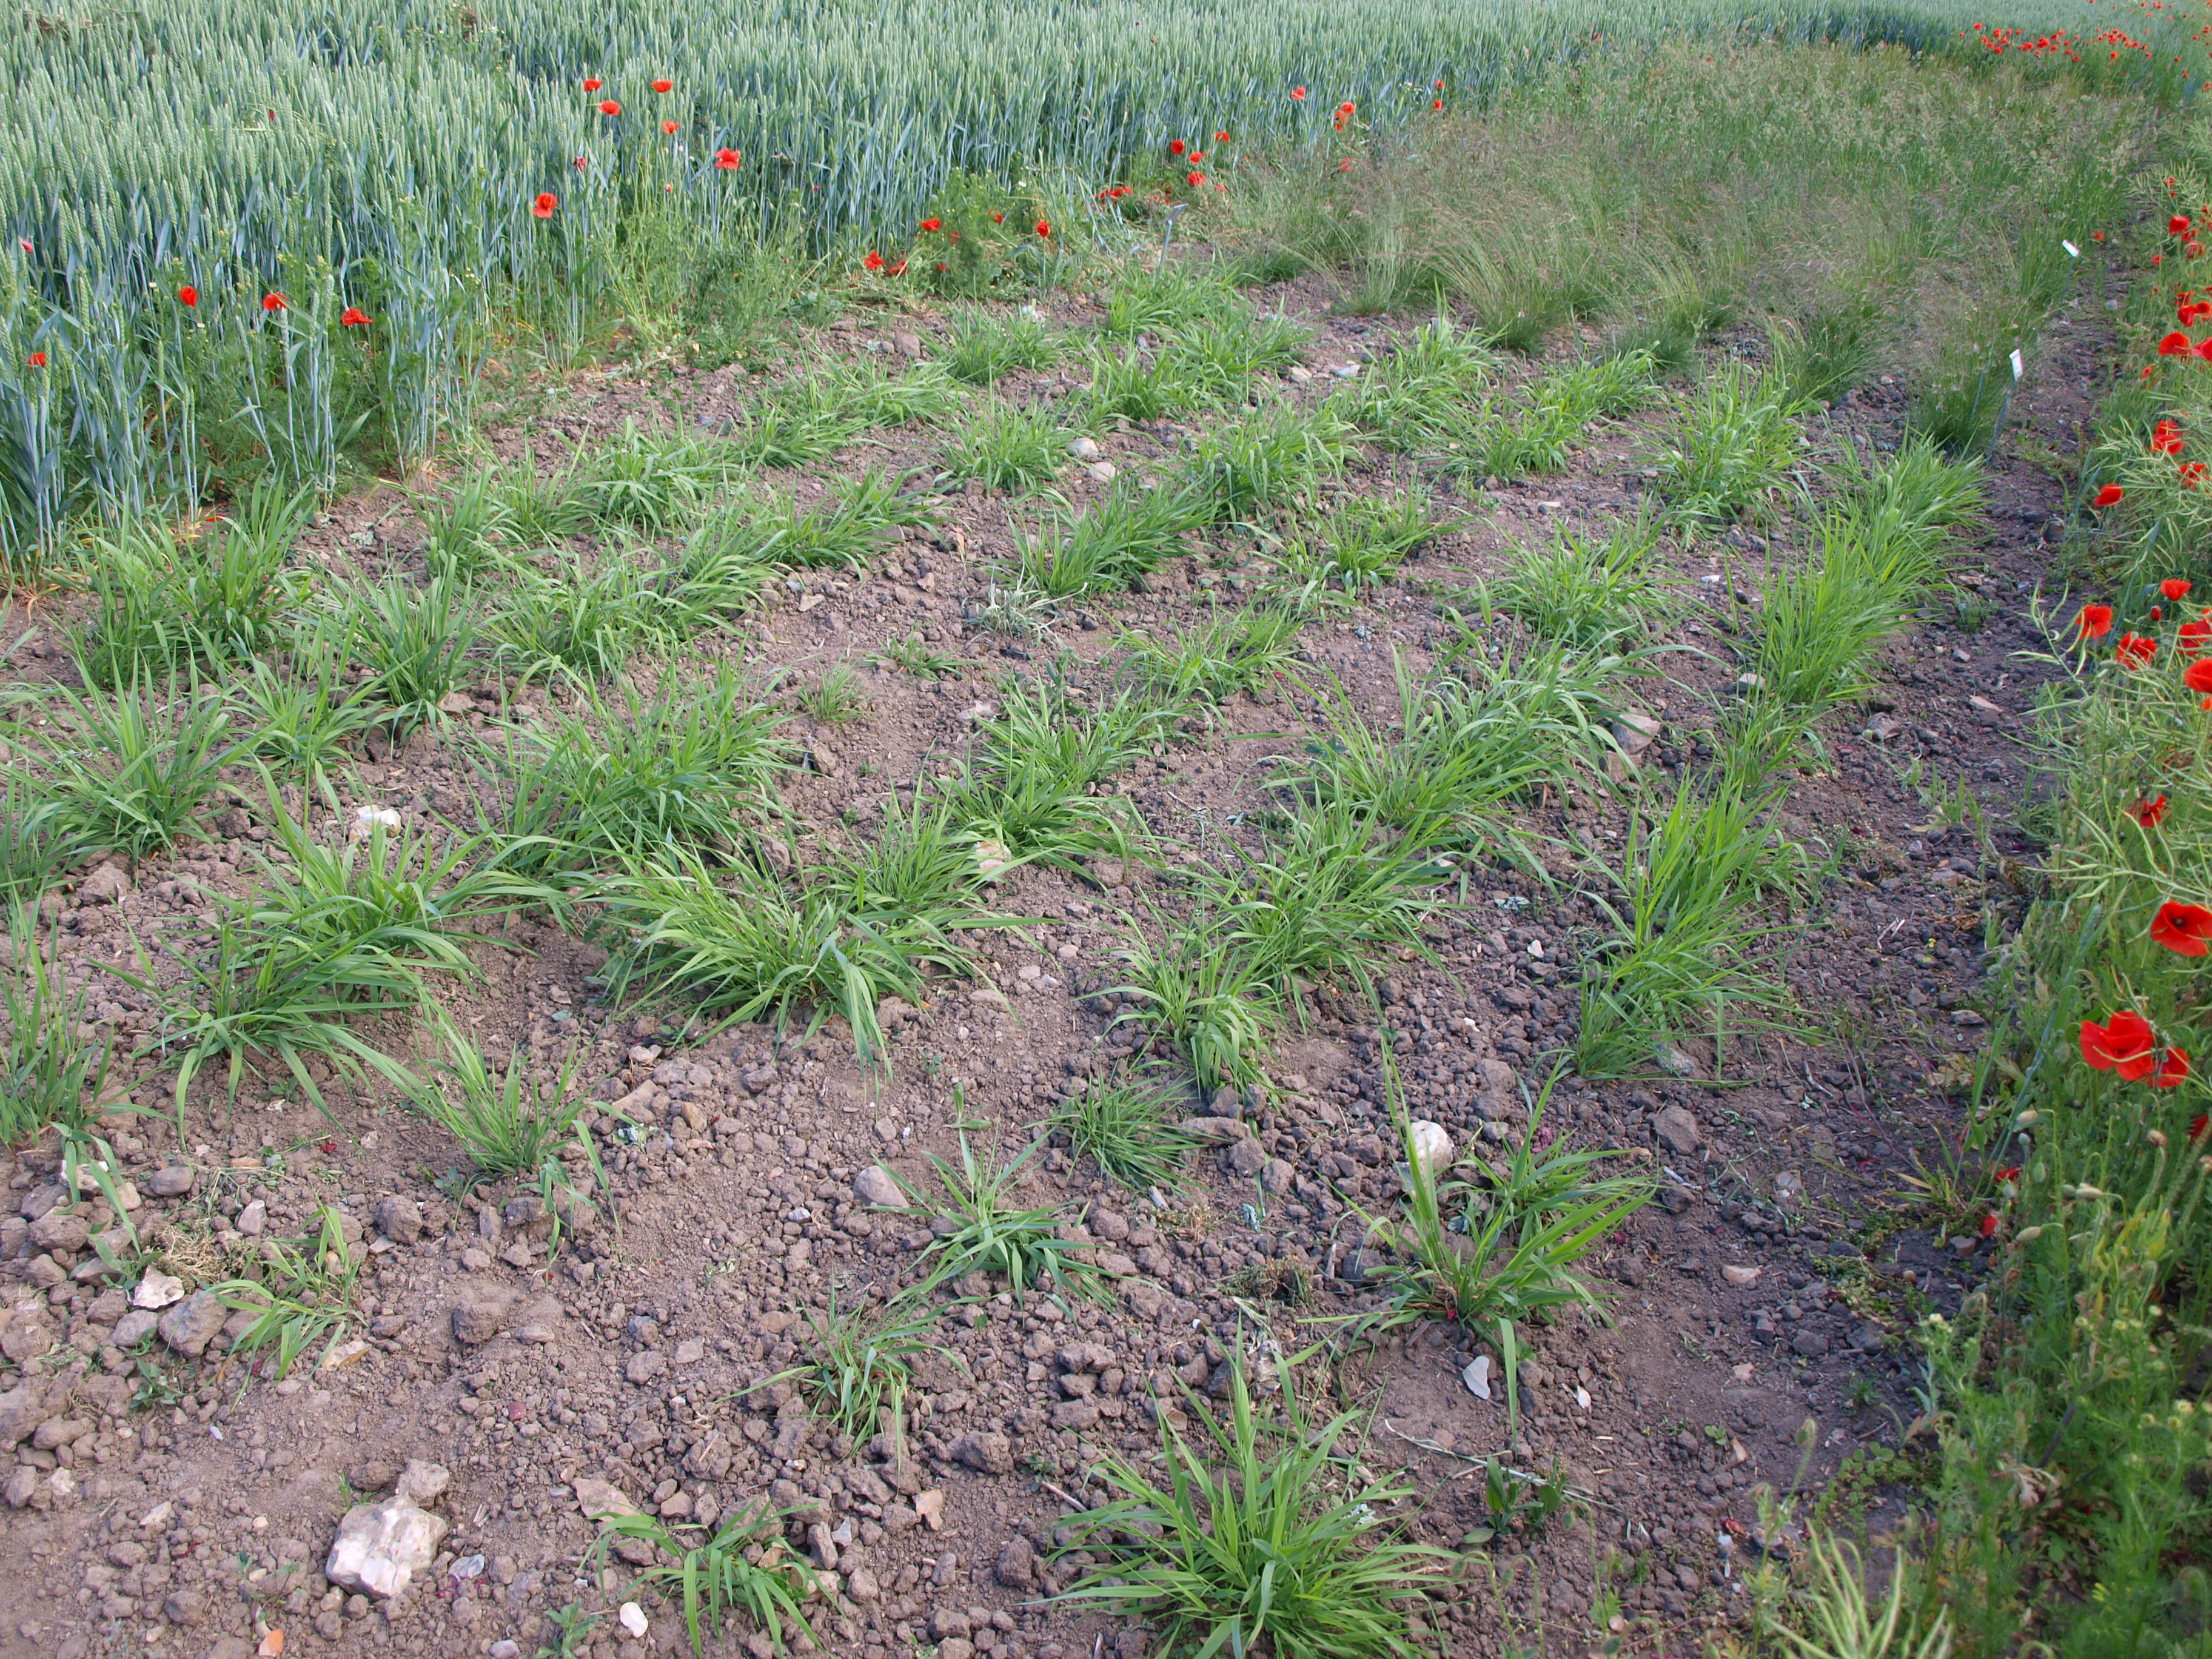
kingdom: Plantae
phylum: Tracheophyta
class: Liliopsida
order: Poales
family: Poaceae
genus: Alopecurus
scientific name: Alopecurus pratensis
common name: Meadow foxtail
